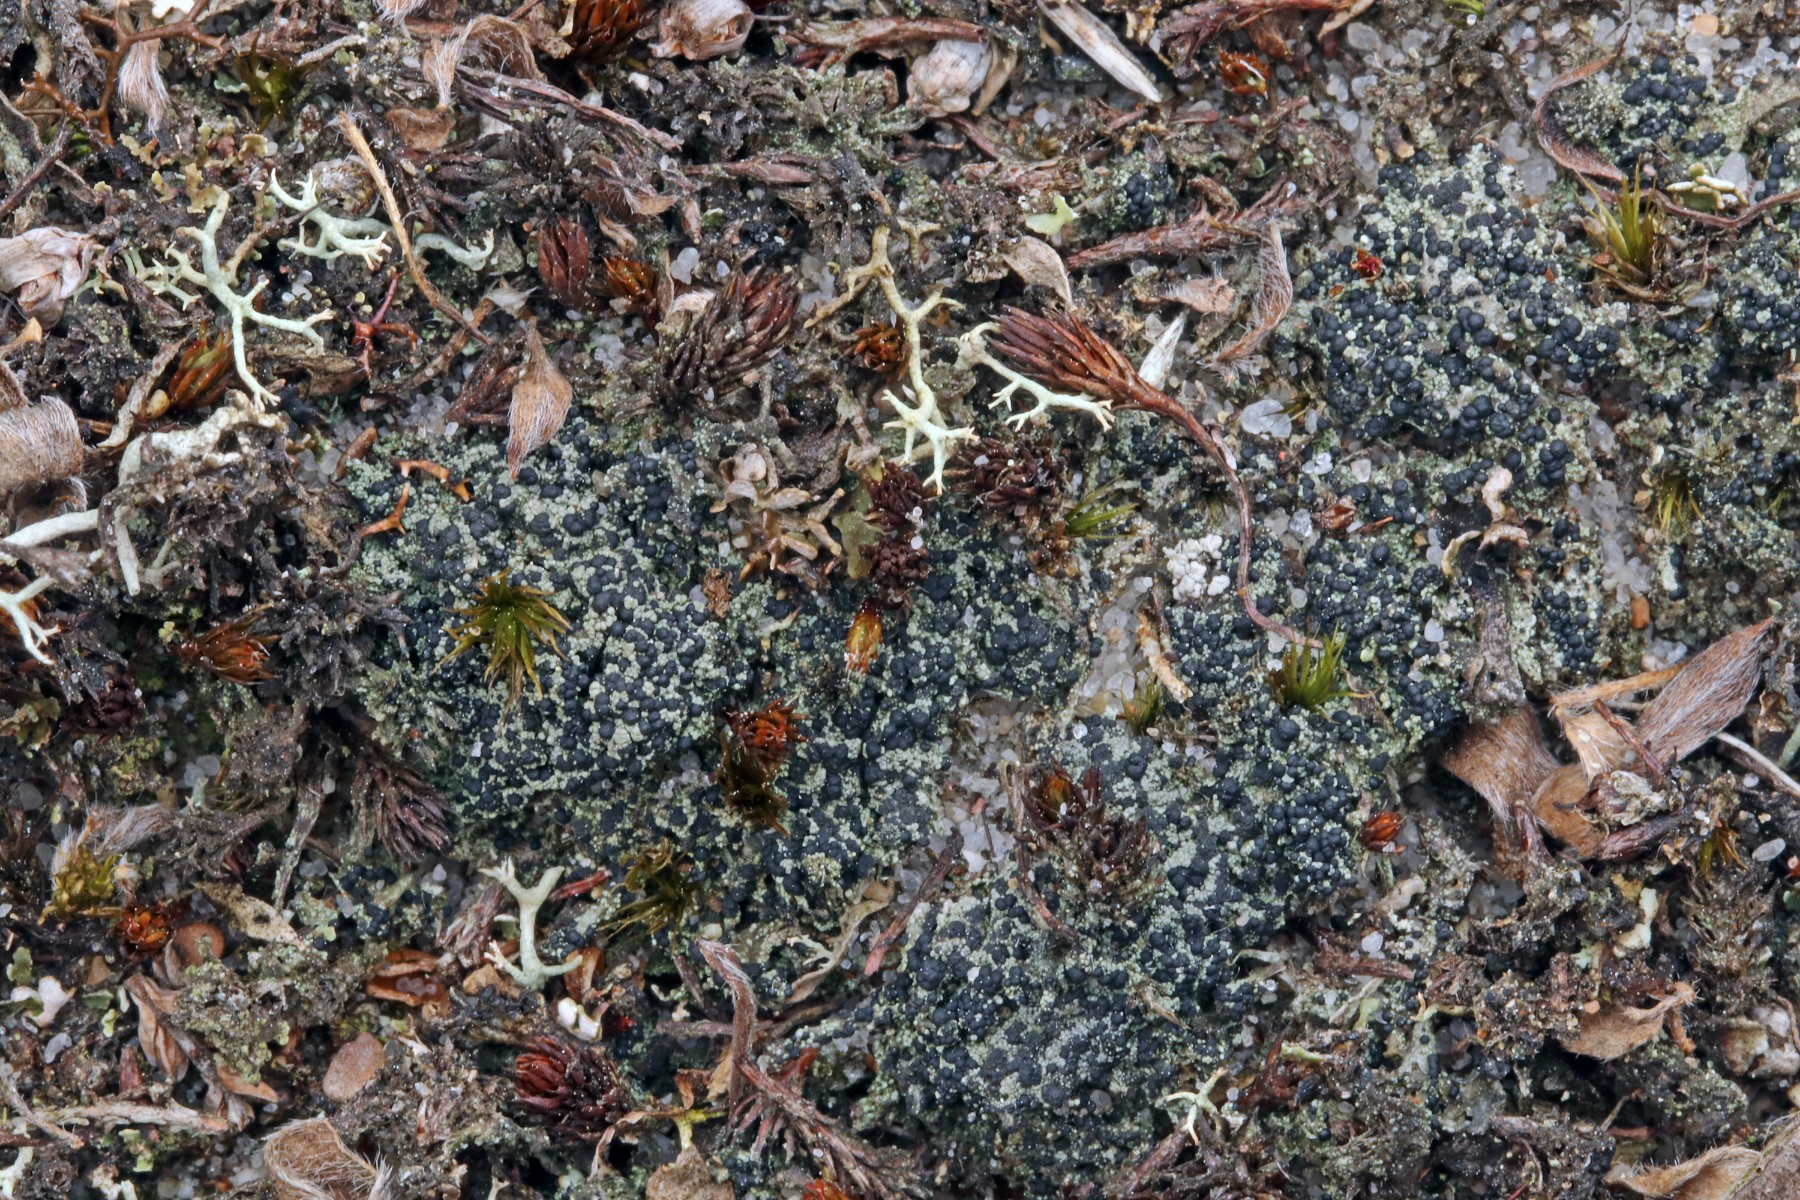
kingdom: Fungi
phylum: Ascomycota
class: Lecanoromycetes
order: Lecanorales
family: Byssolomataceae
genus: Micarea
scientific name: Micarea lignaria
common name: tørve-knaplav
